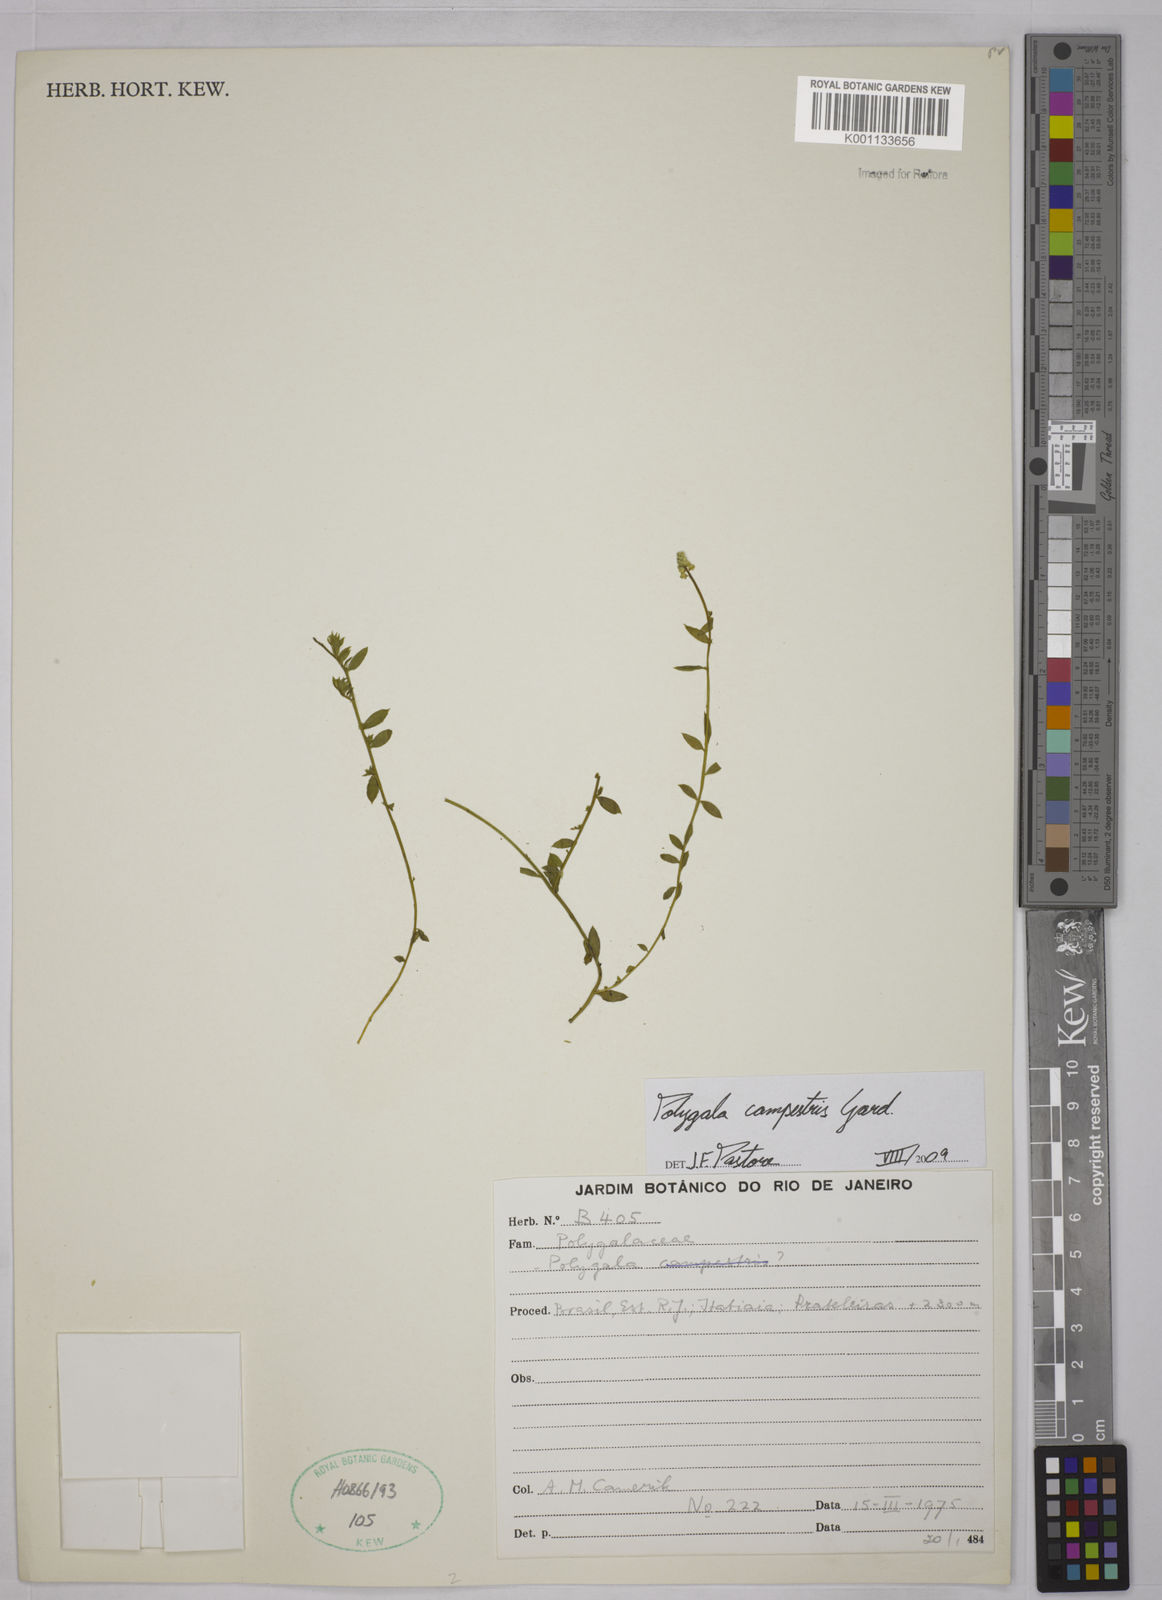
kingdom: Plantae
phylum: Tracheophyta
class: Magnoliopsida
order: Fabales
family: Polygalaceae
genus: Polygala
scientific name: Polygala campestris
